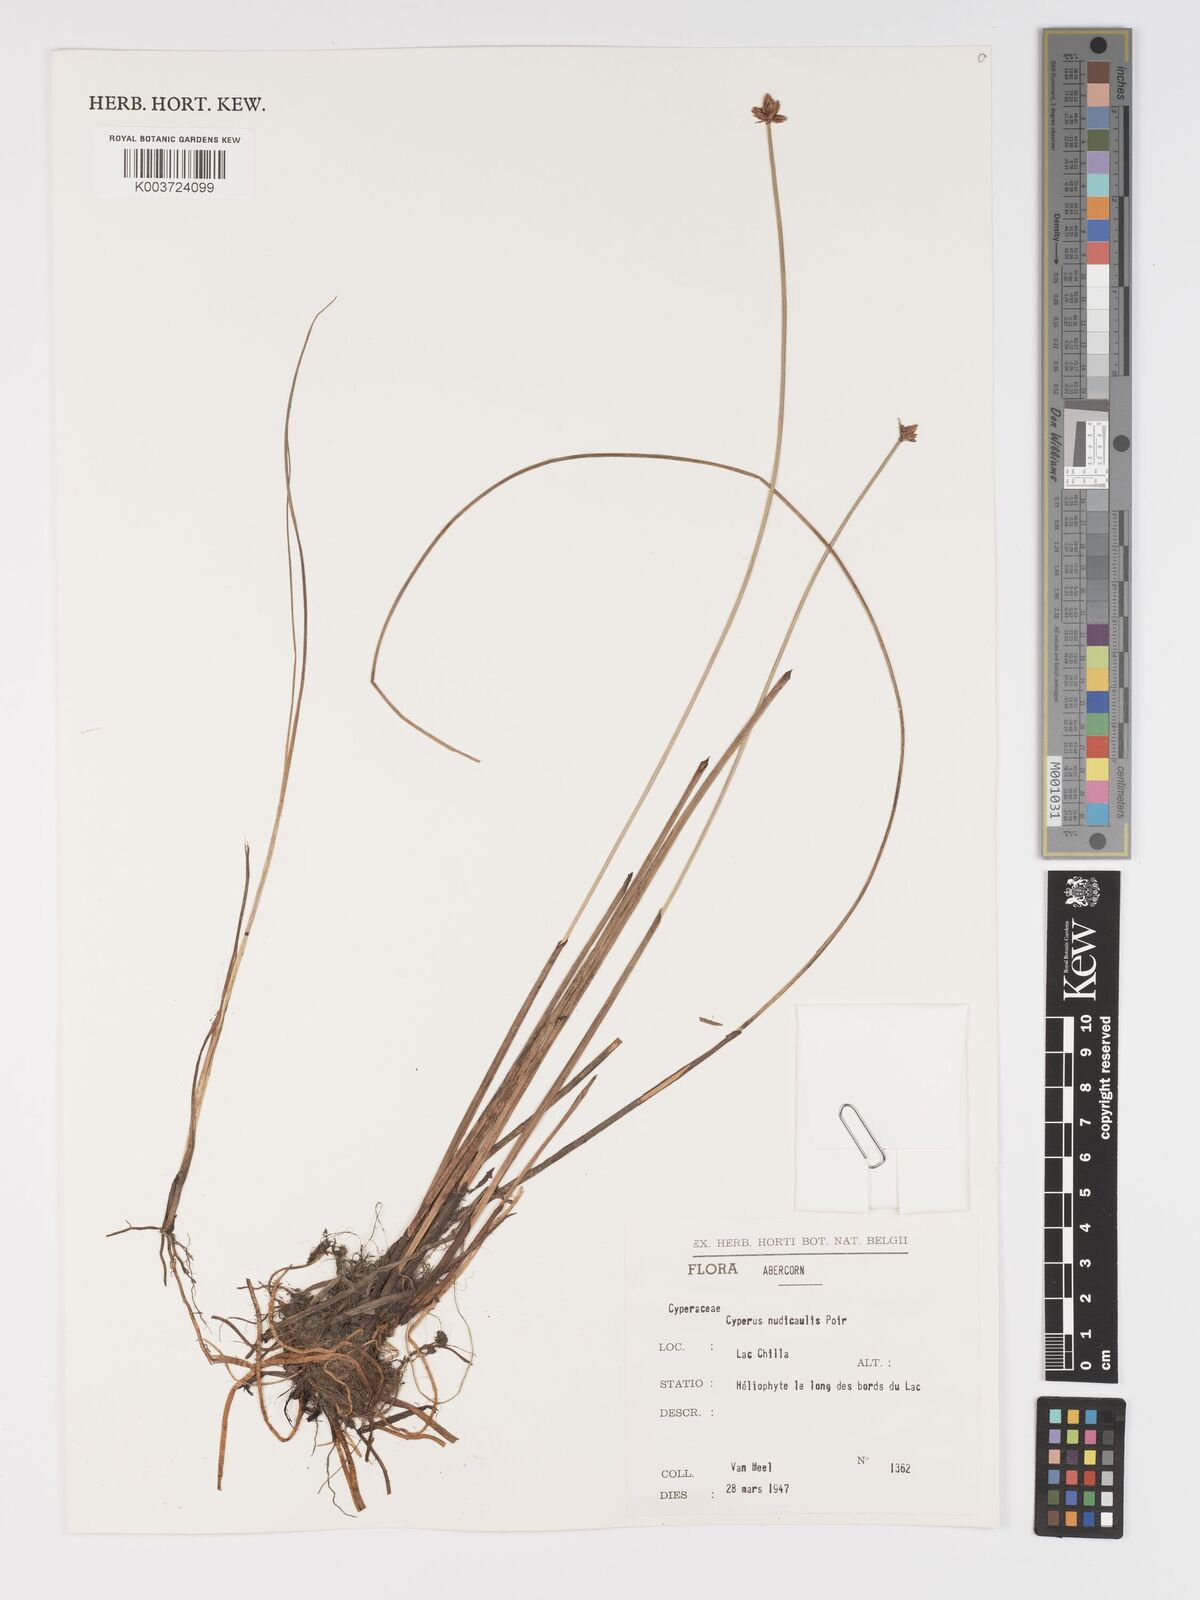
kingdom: Plantae
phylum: Tracheophyta
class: Liliopsida
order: Poales
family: Cyperaceae
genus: Cyperus
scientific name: Cyperus compressus
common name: Poorland flatsedge
